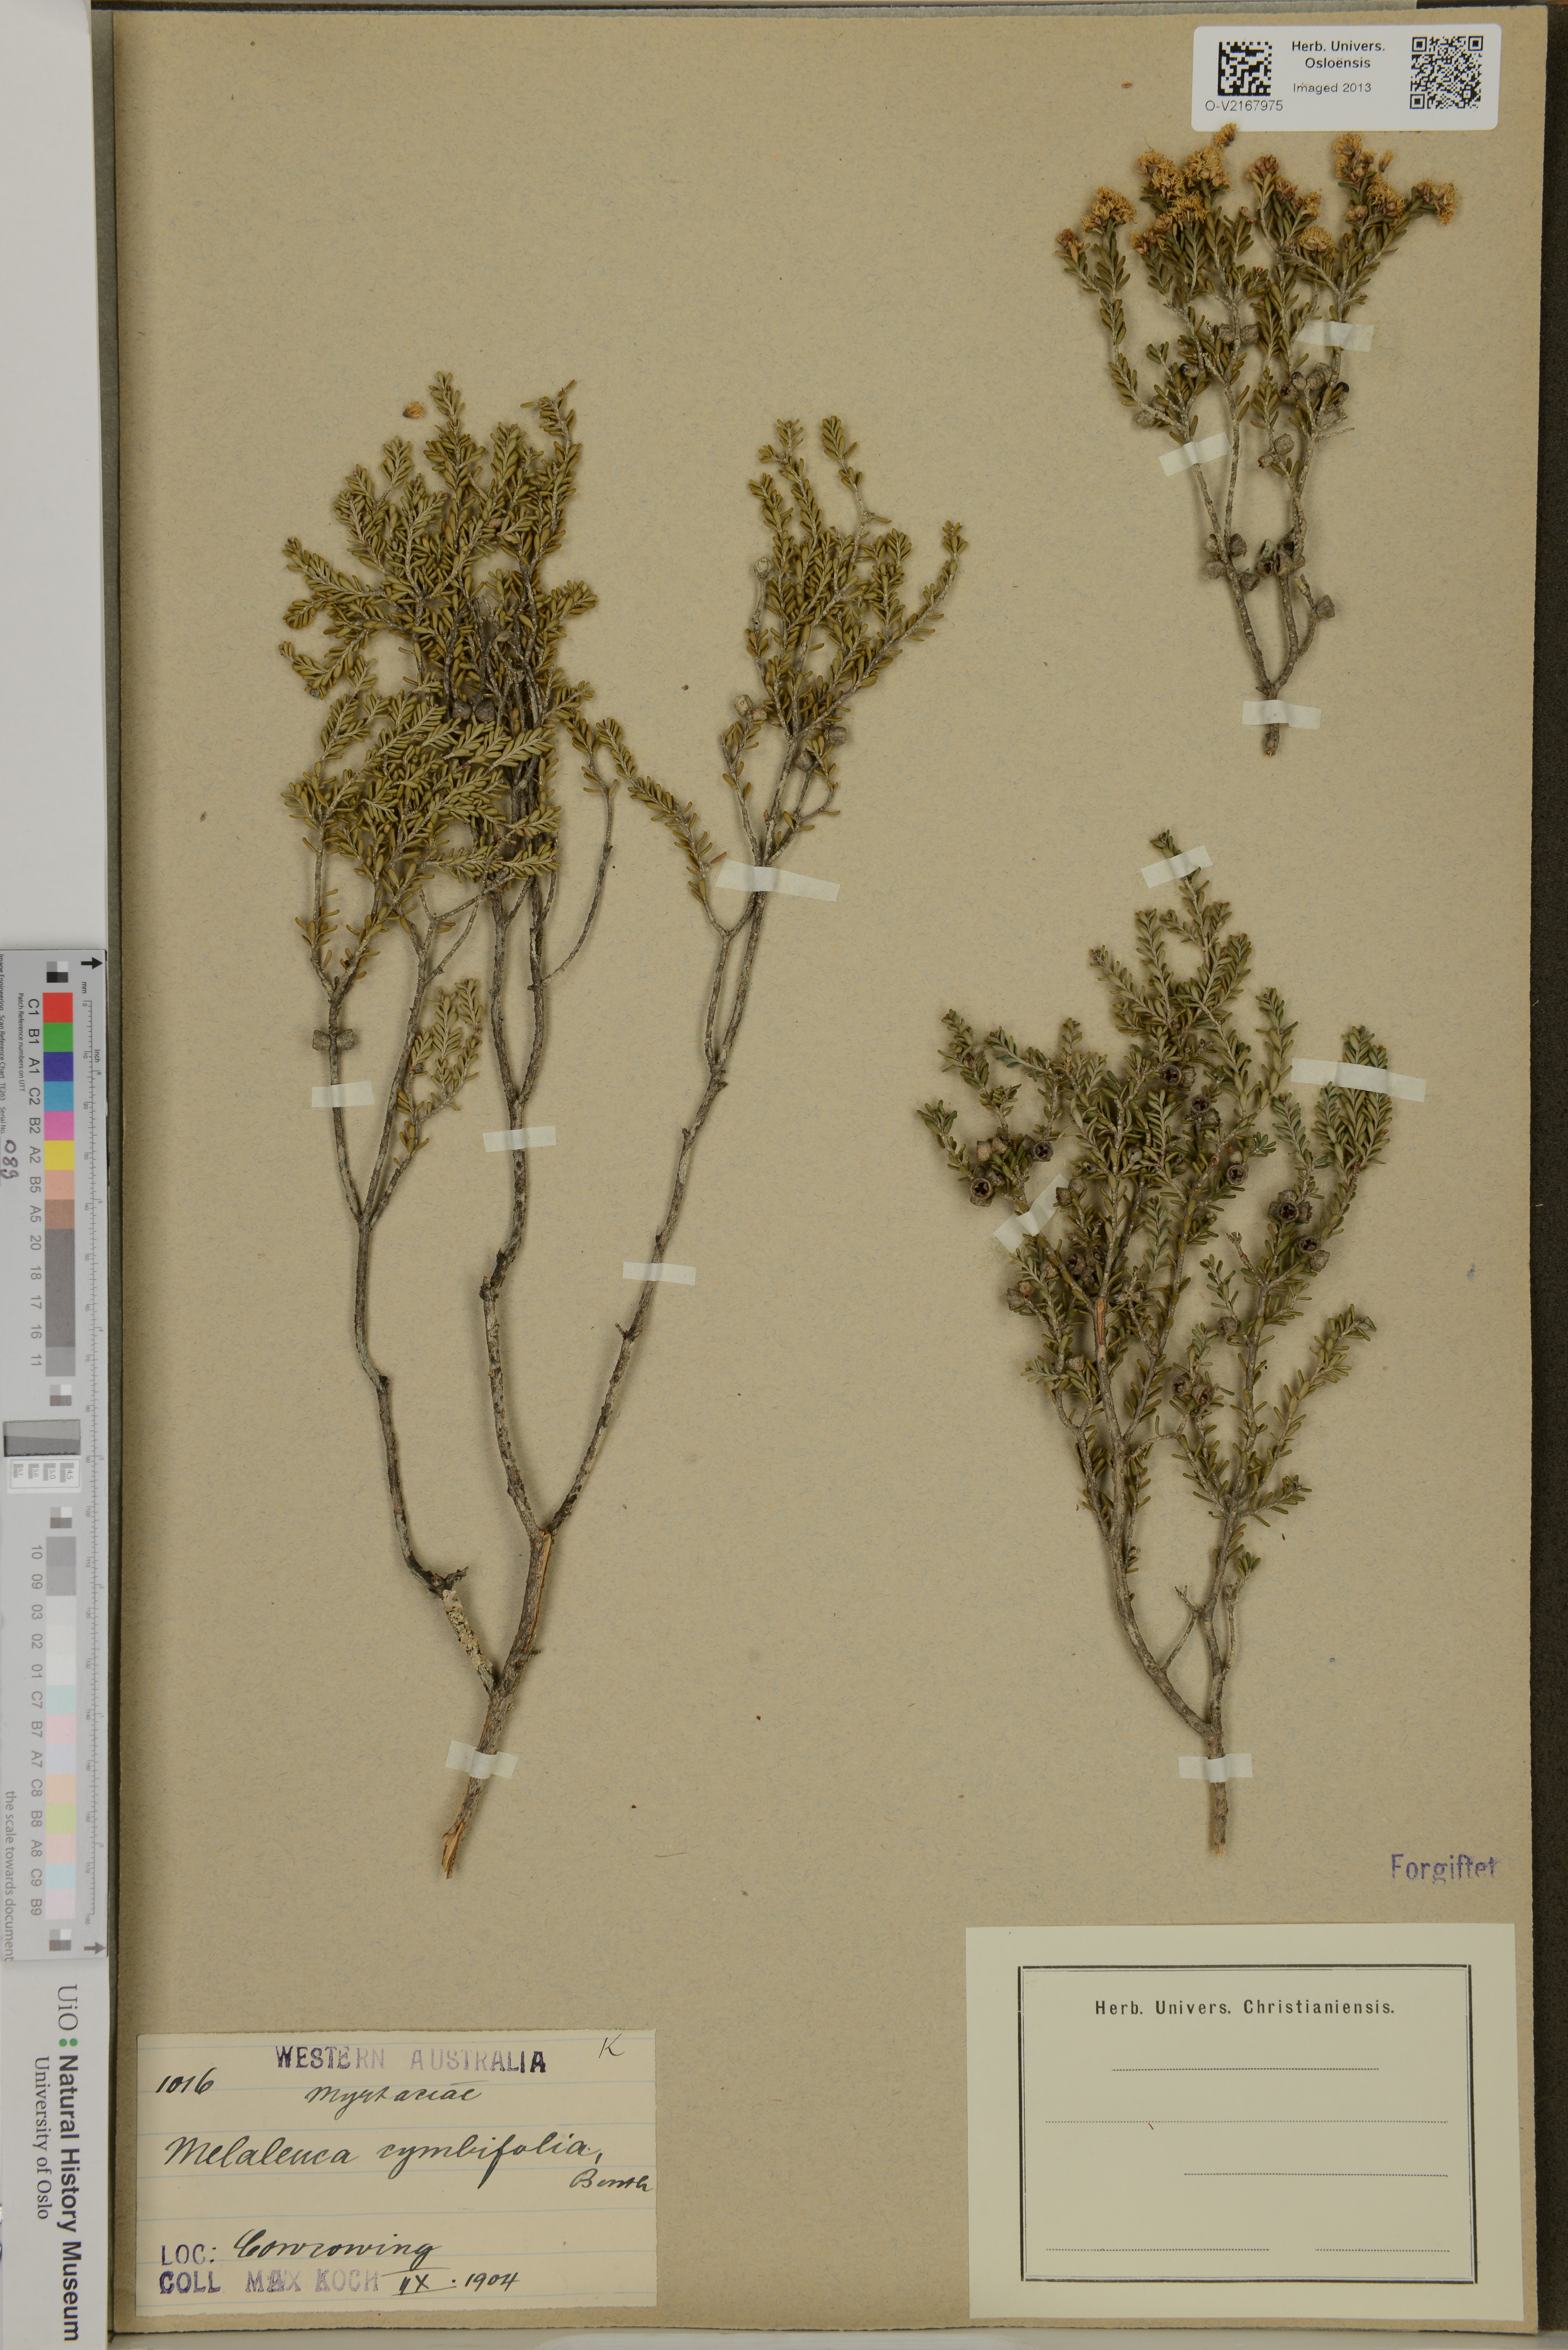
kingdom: Plantae
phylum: Tracheophyta
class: Magnoliopsida
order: Myrtales
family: Myrtaceae
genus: Melaleuca
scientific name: Melaleuca halmaturorum
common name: Coastal paper-bark
